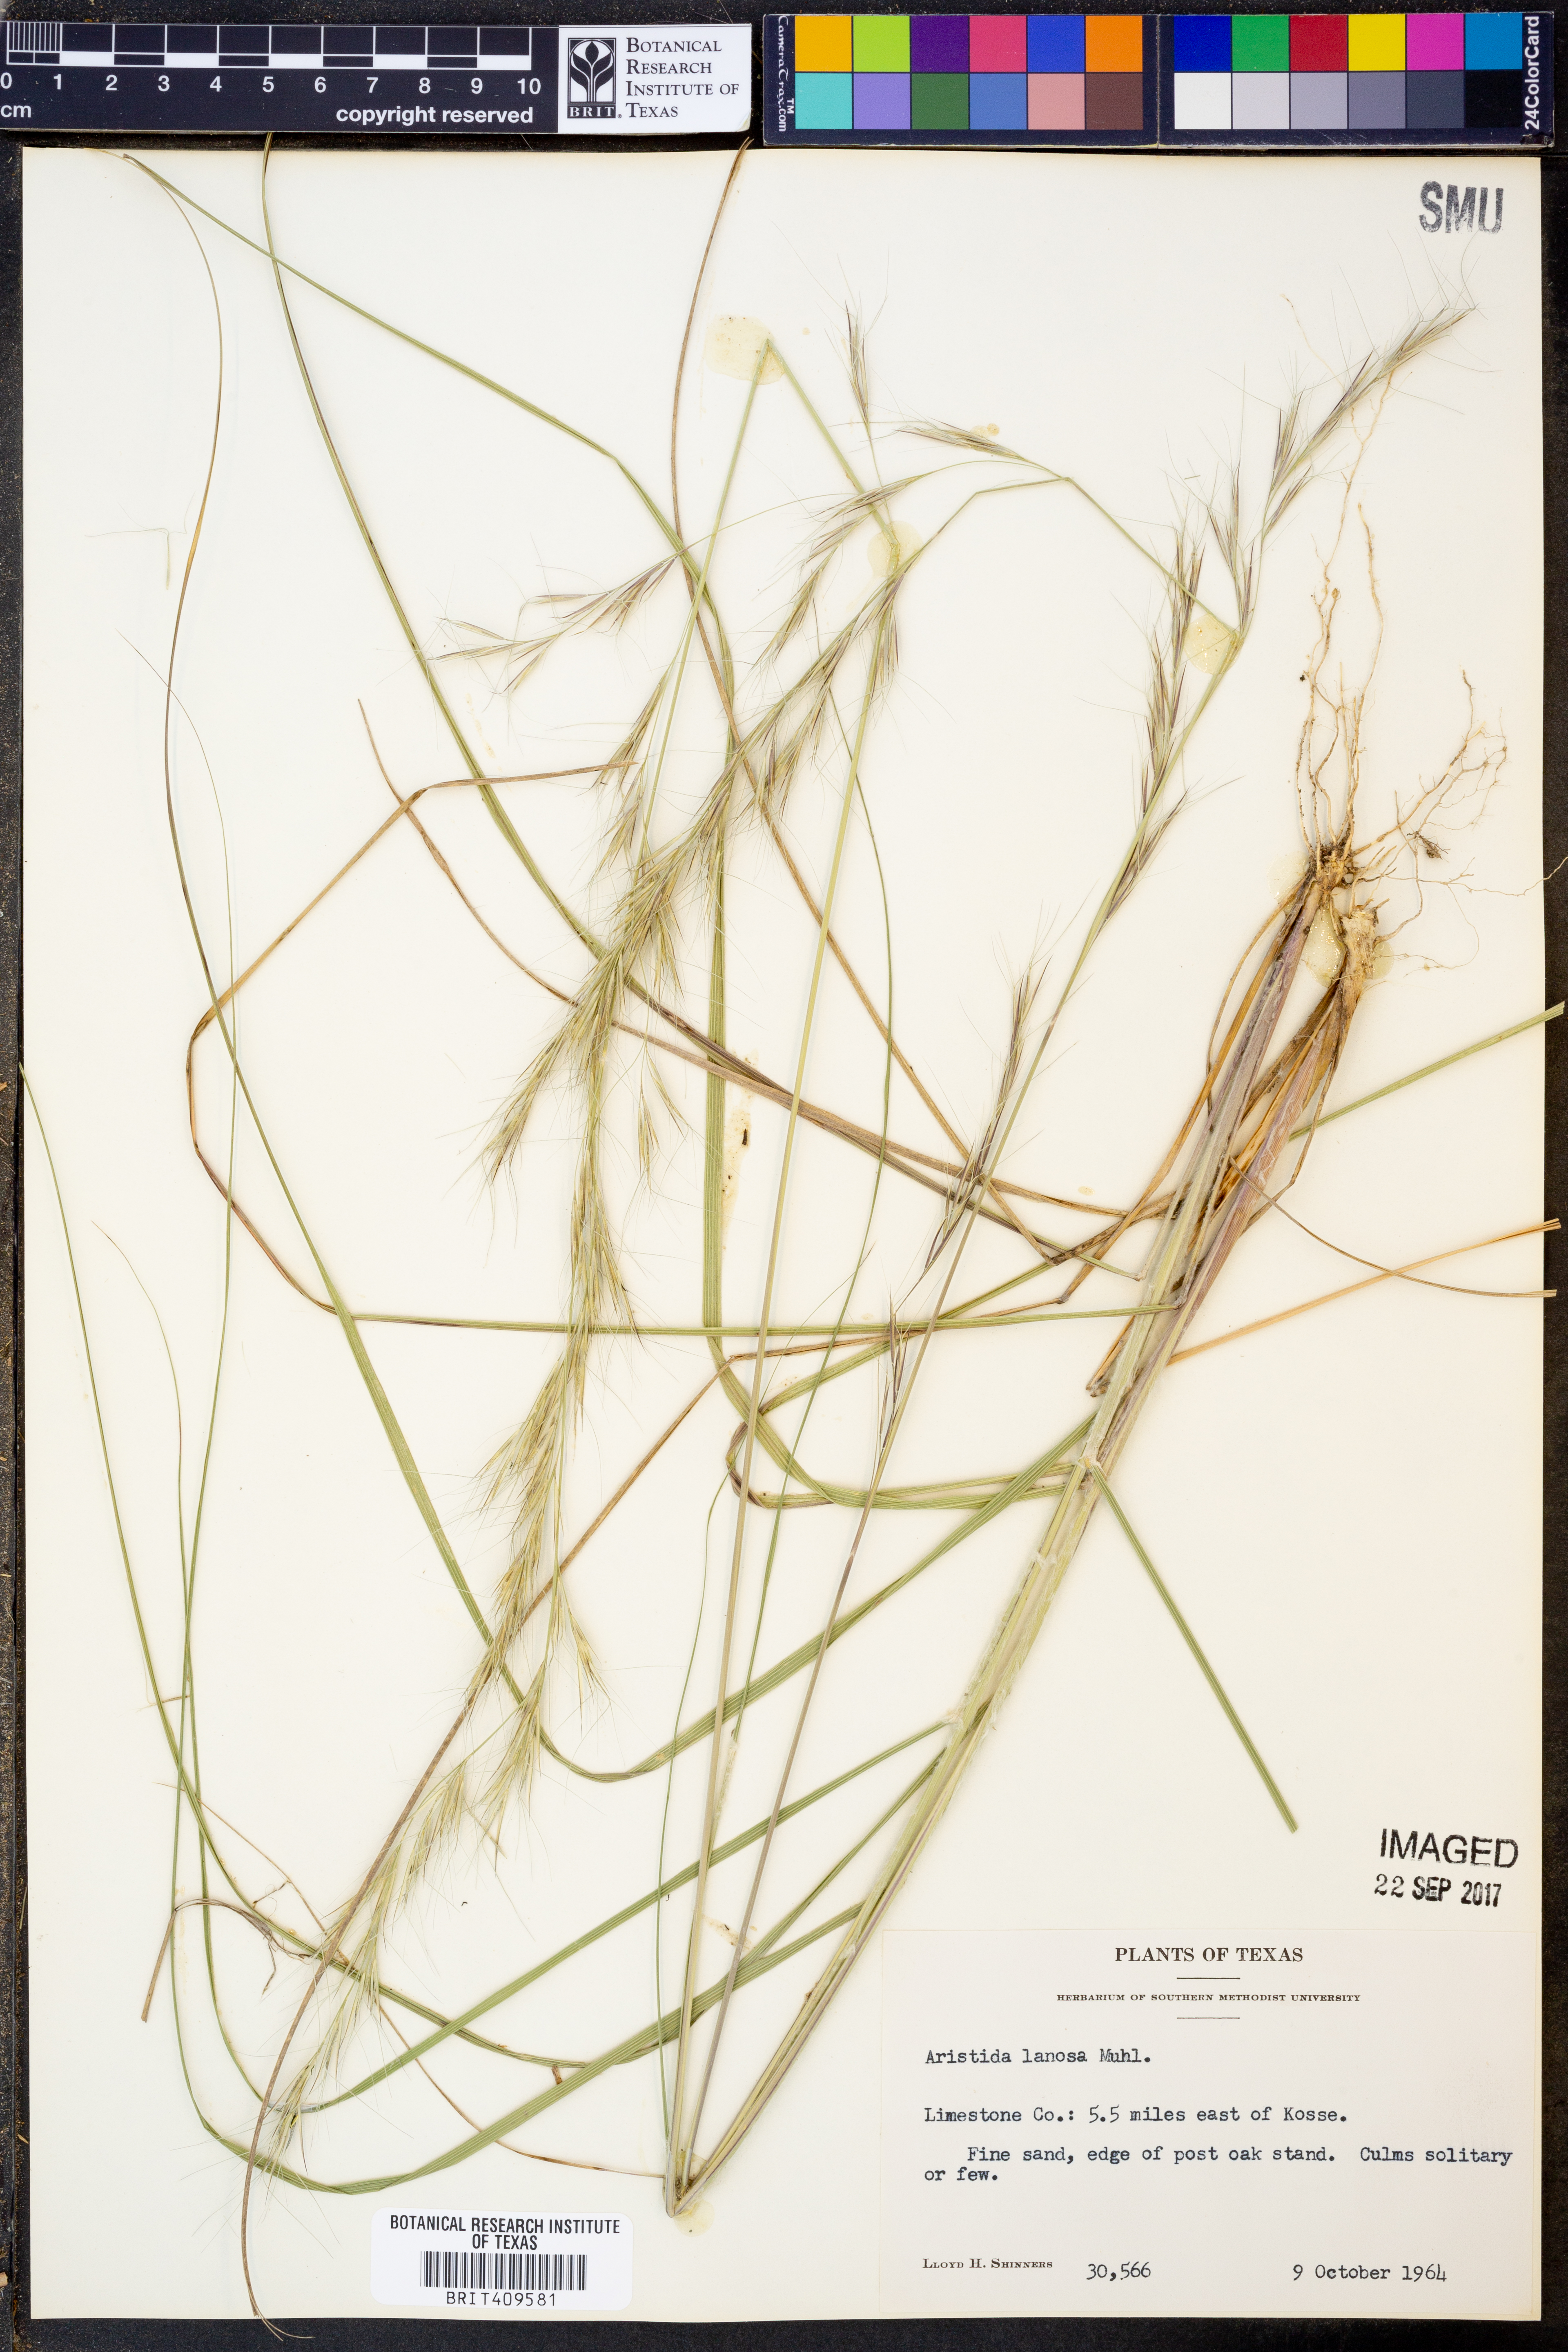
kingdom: Plantae
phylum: Tracheophyta
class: Liliopsida
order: Poales
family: Poaceae
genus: Aristida
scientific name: Aristida lanosa
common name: Woolly three-awn
